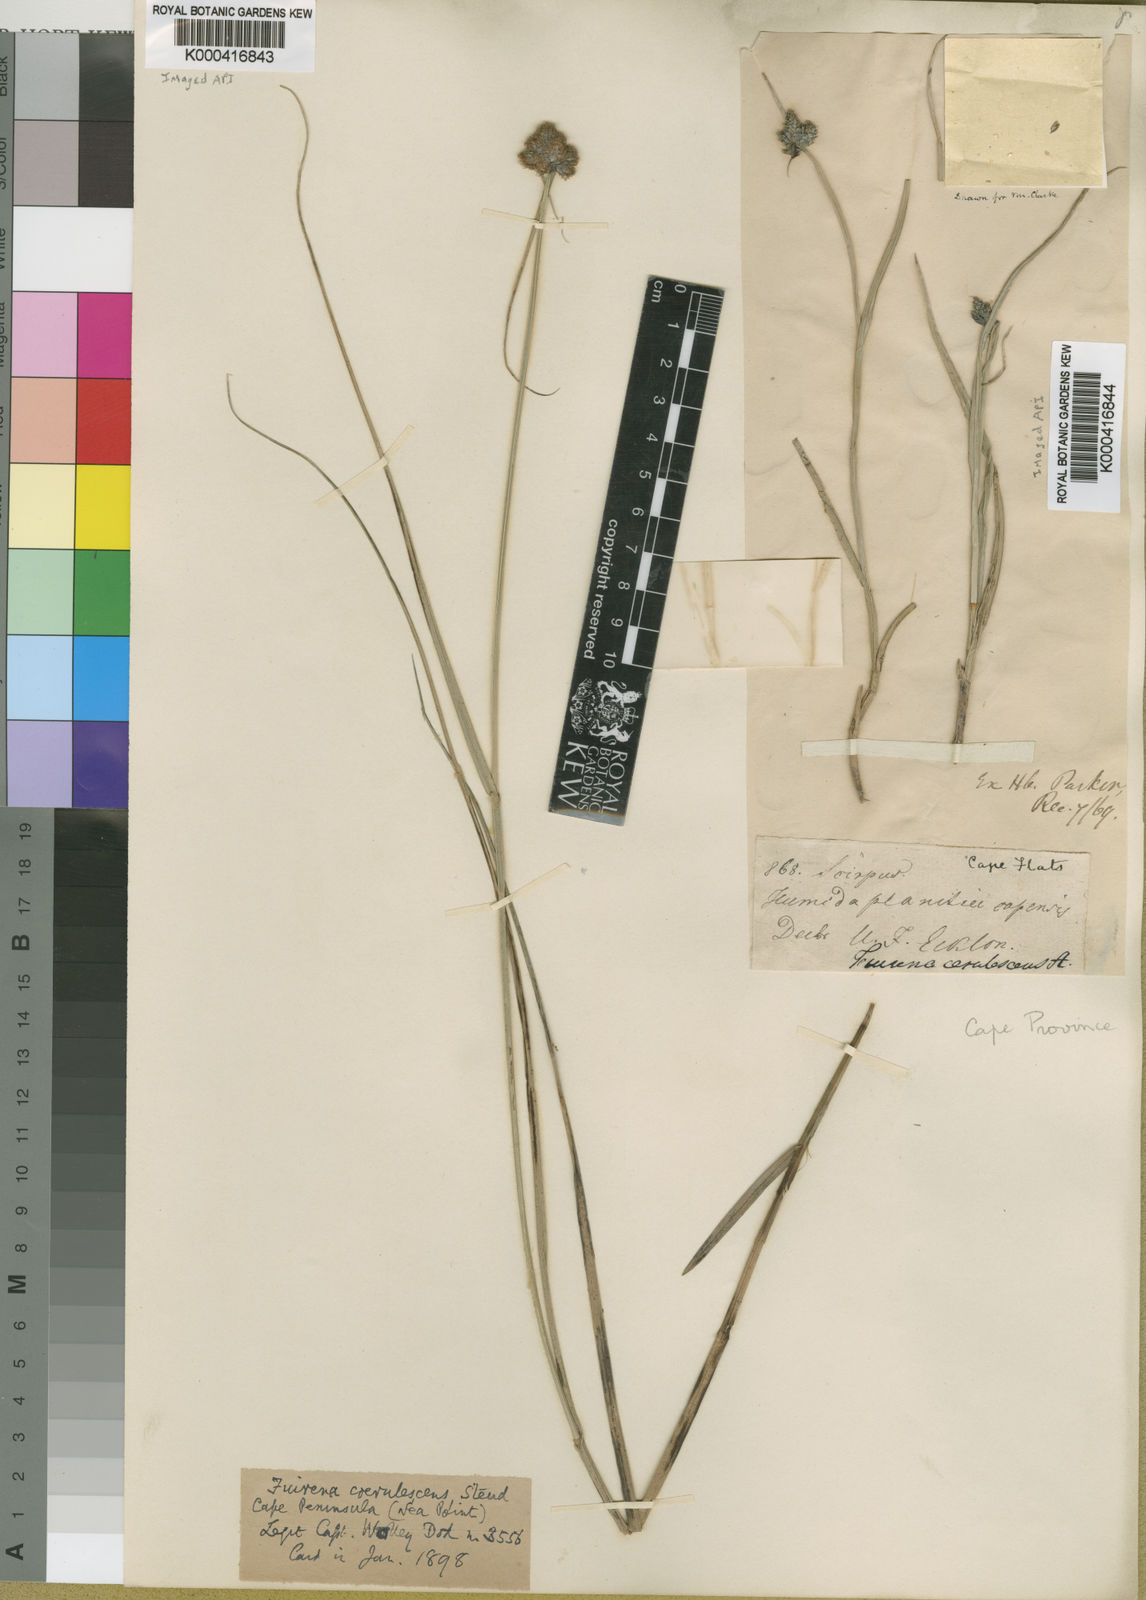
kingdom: Plantae
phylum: Tracheophyta
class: Liliopsida
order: Poales
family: Cyperaceae
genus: Fuirena
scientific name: Fuirena coerulescens
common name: Blue umbrella-sedge
